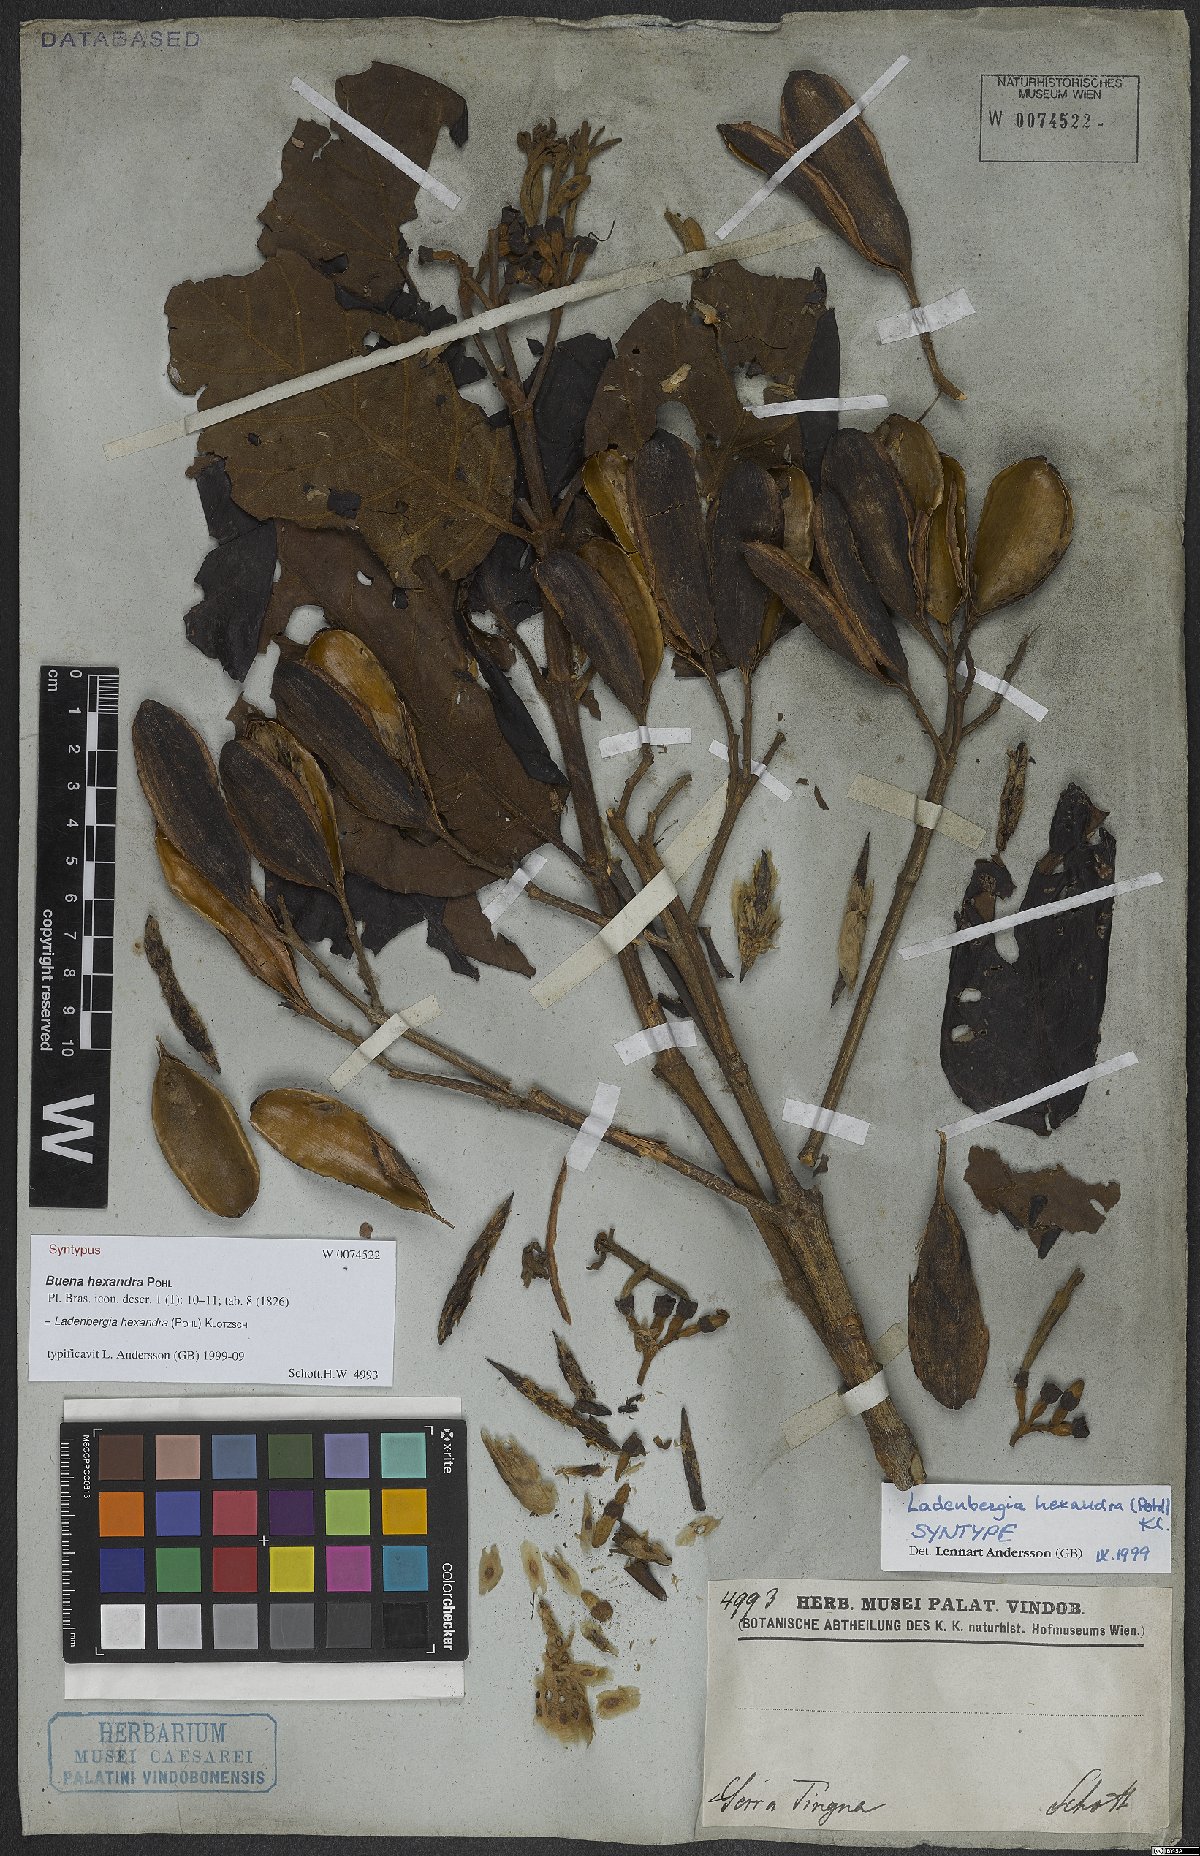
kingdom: Plantae
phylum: Tracheophyta
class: Magnoliopsida
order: Gentianales
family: Rubiaceae
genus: Ladenbergia
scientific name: Ladenbergia hexandra
